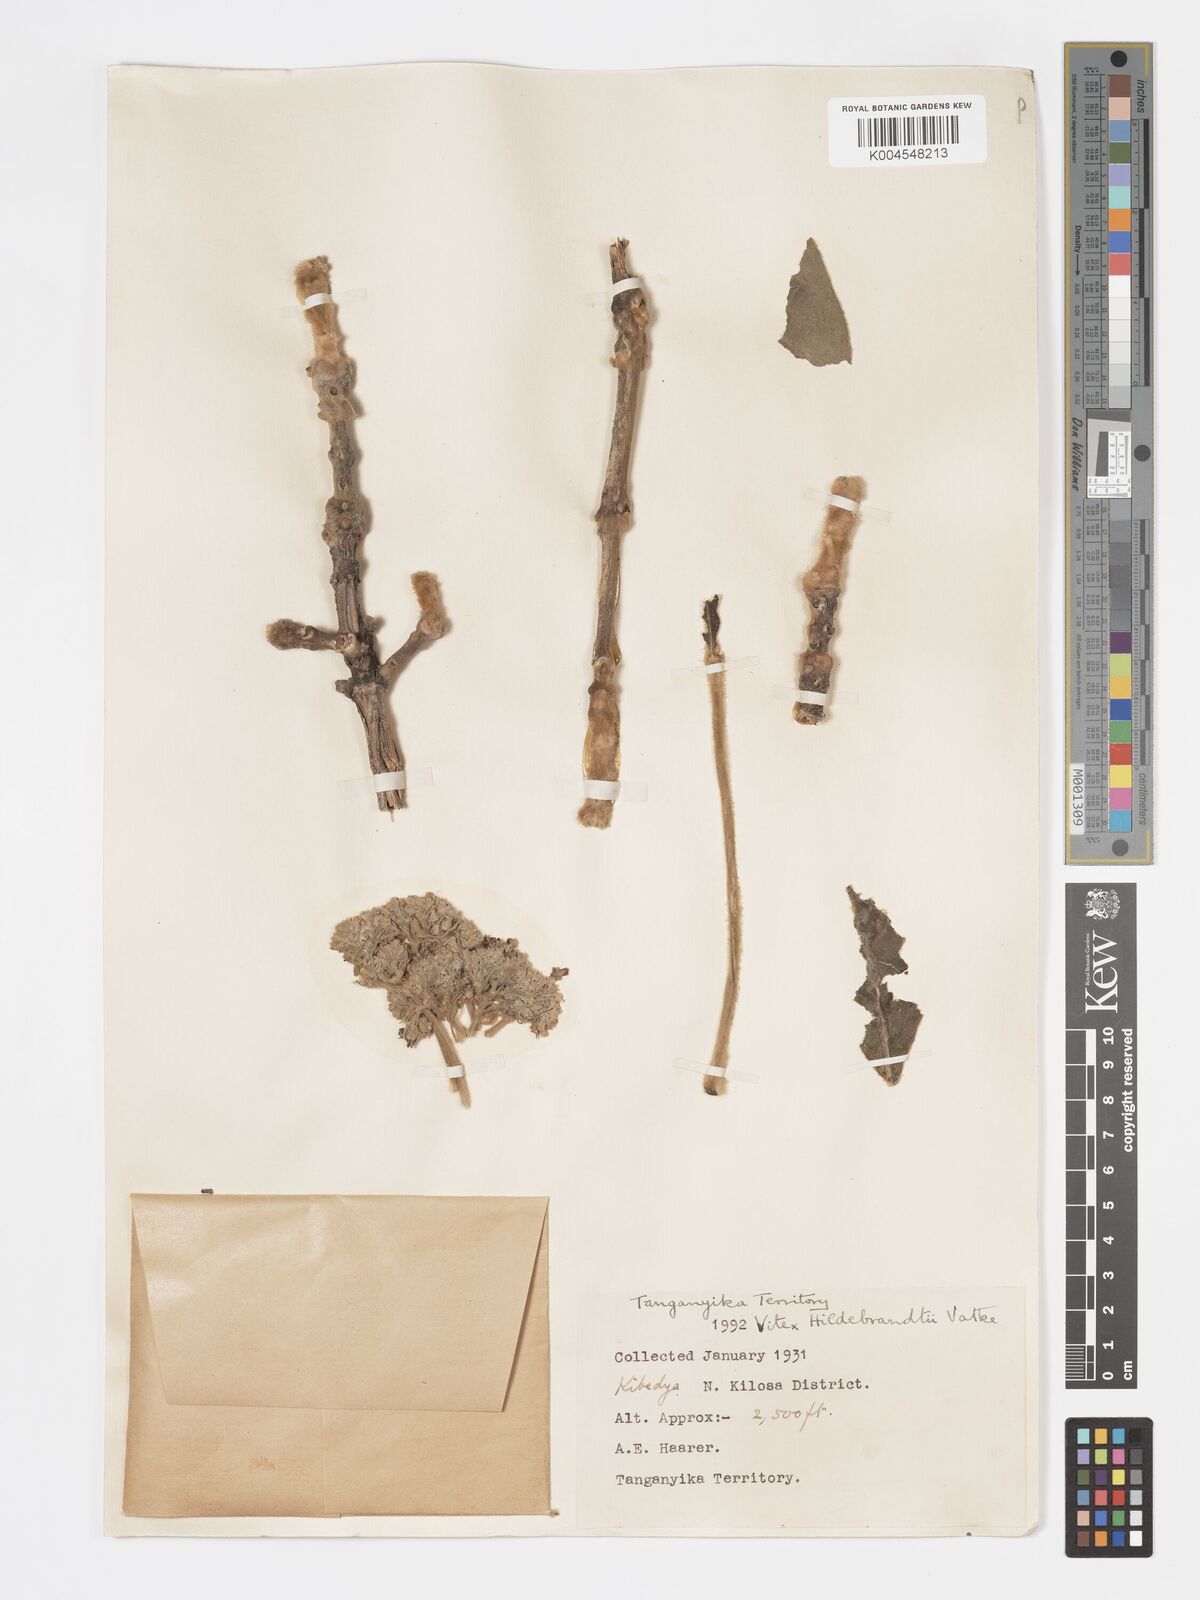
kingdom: Plantae
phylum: Tracheophyta
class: Magnoliopsida
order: Lamiales
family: Lamiaceae
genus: Vitex
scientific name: Vitex payos
